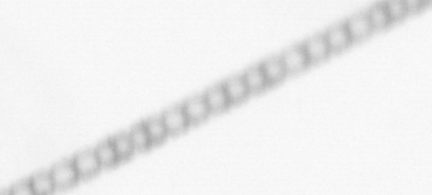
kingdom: Chromista
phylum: Ochrophyta
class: Bacillariophyceae
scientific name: Bacillariophyceae
